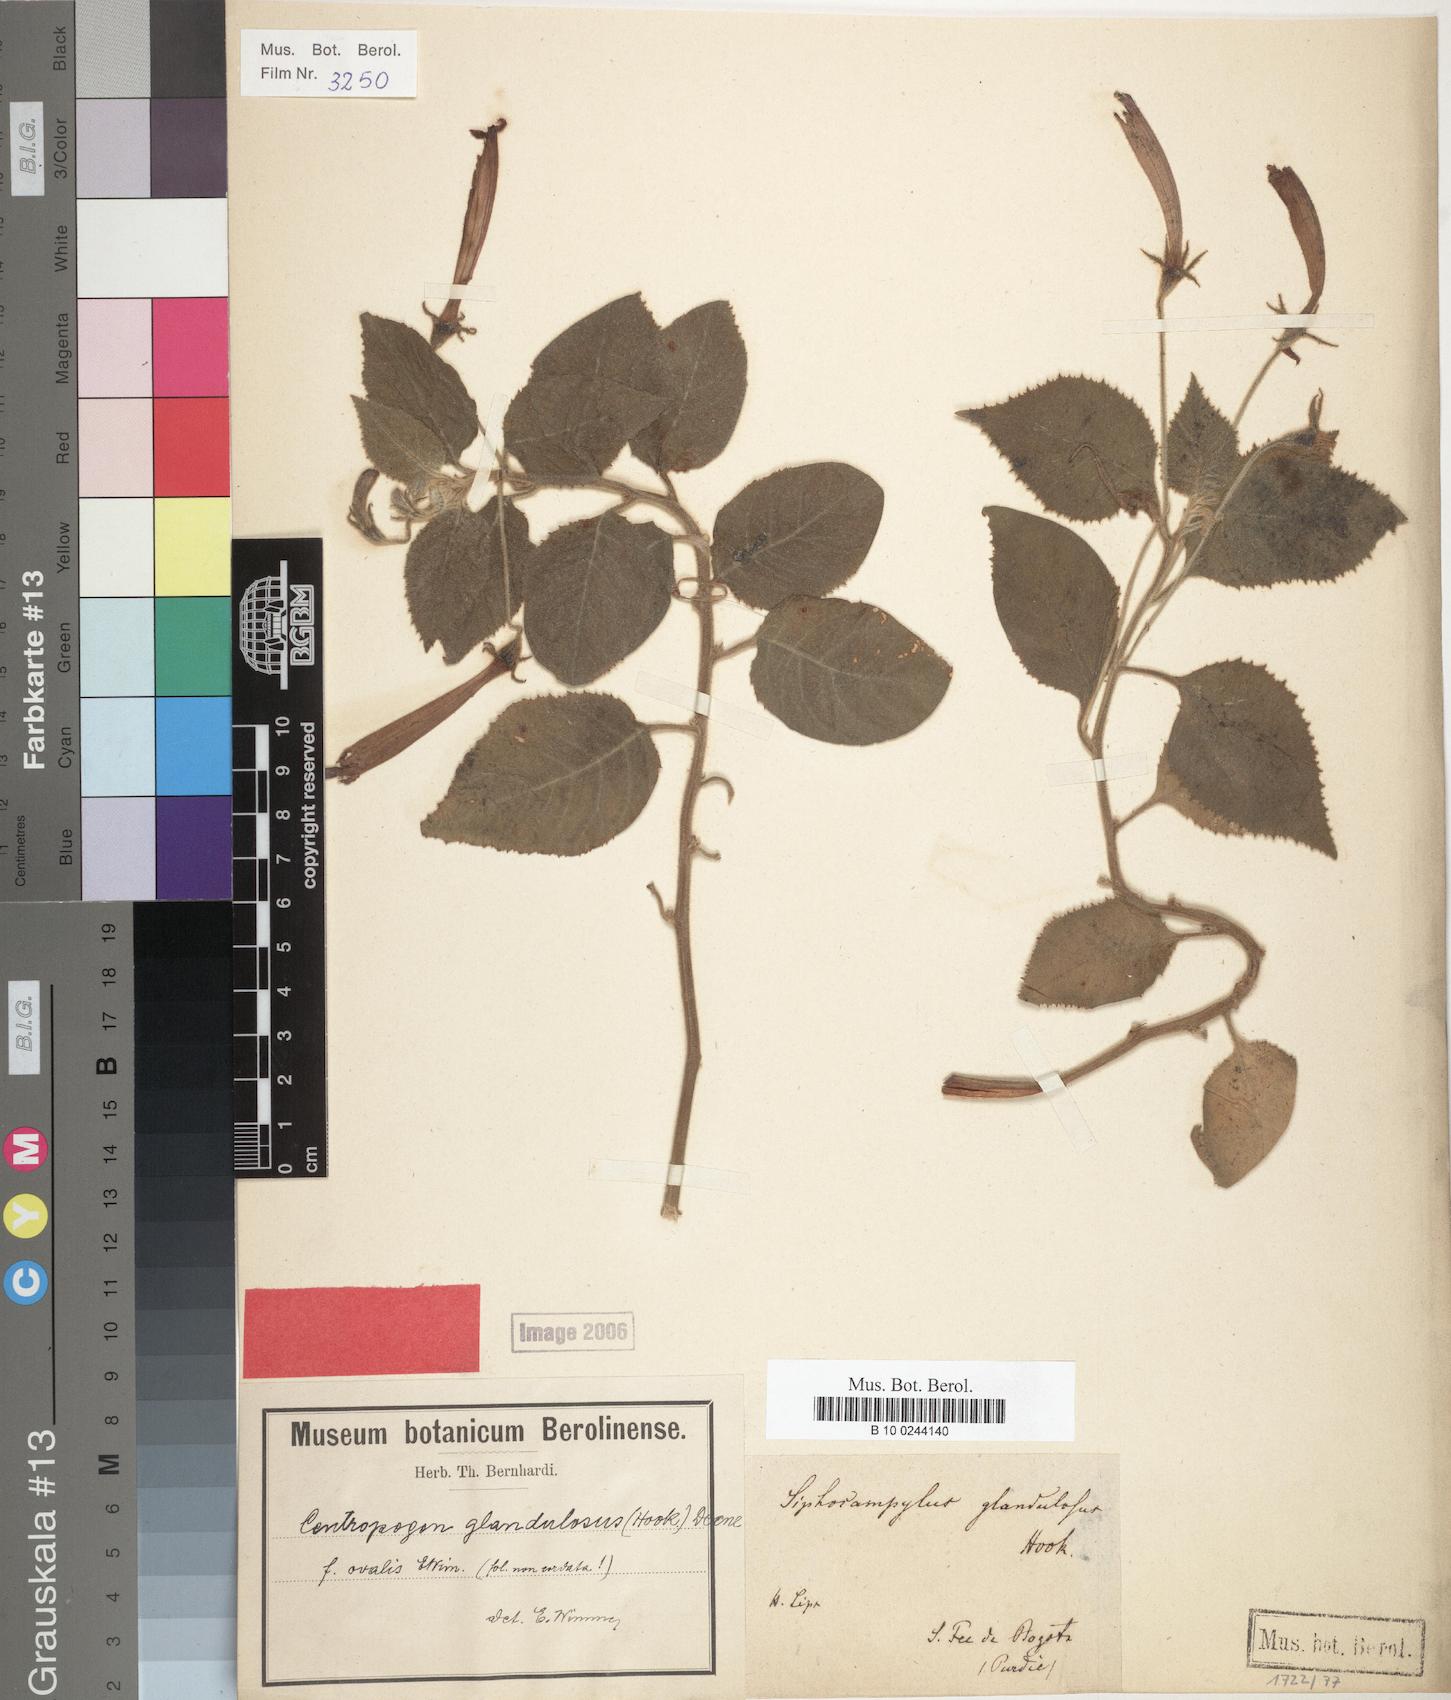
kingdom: Plantae
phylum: Tracheophyta
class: Magnoliopsida
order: Asterales
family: Campanulaceae
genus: Centropogon
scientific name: Centropogon glandulosus
